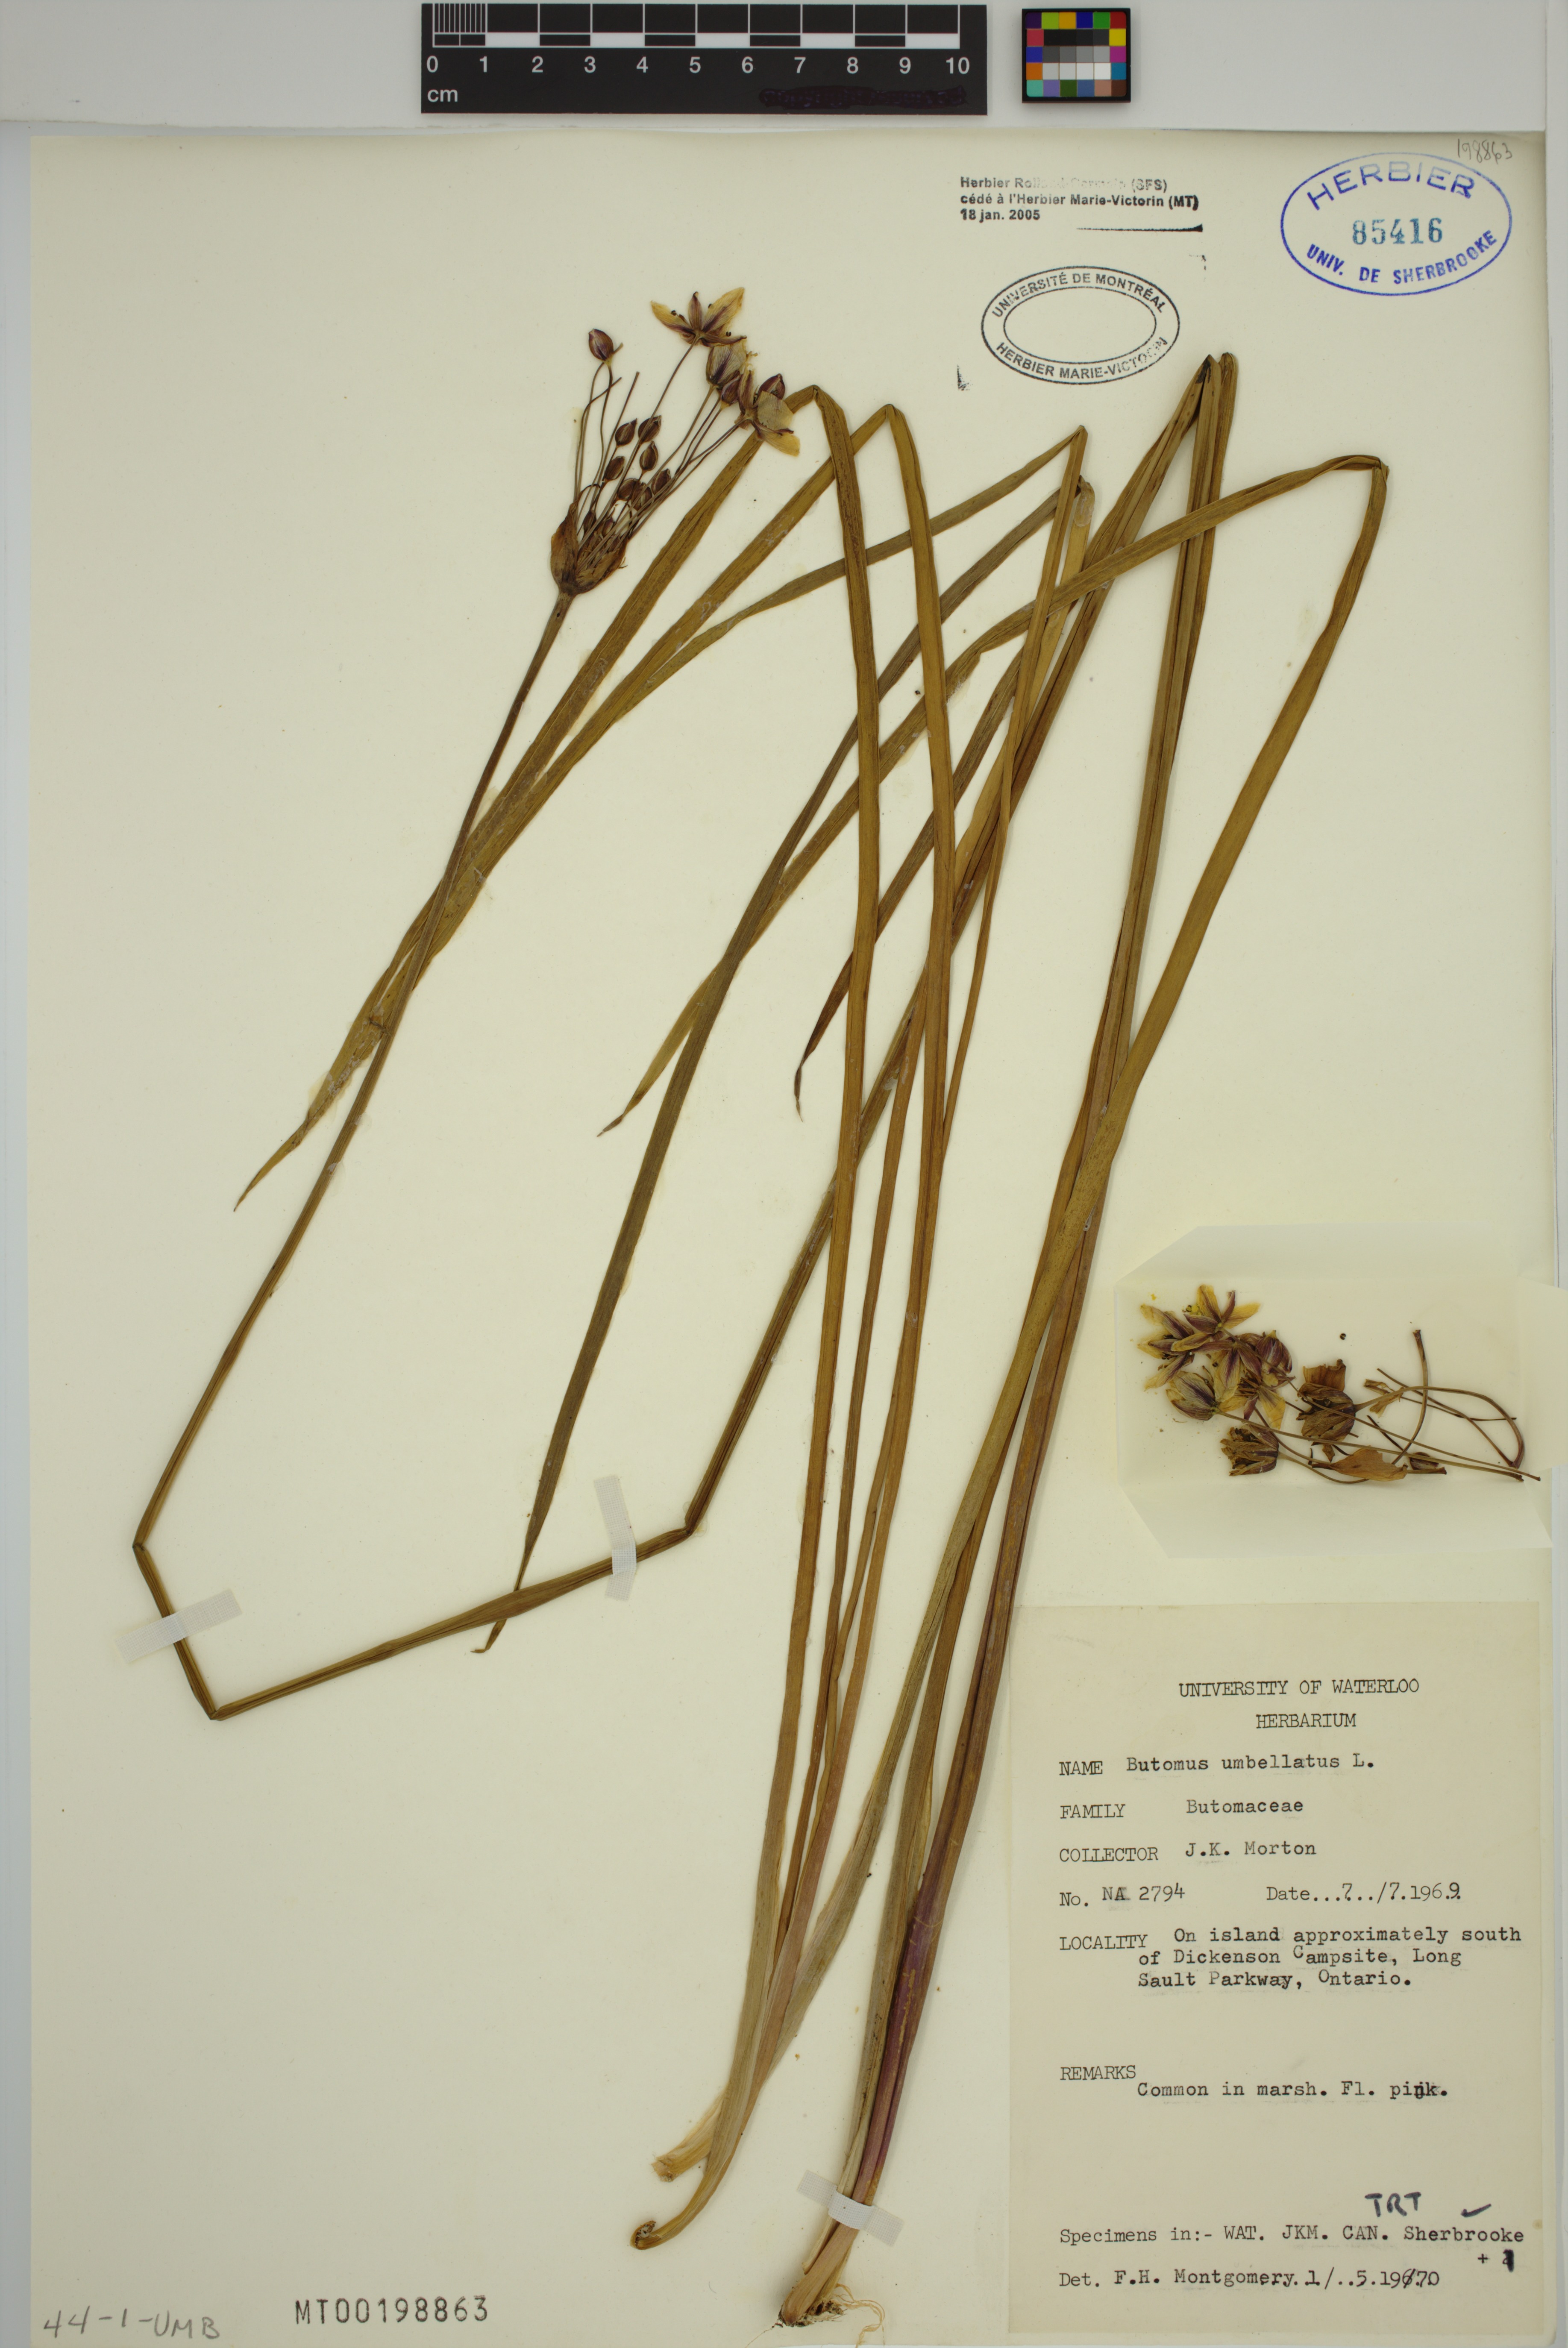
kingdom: Plantae
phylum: Tracheophyta
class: Liliopsida
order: Alismatales
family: Butomaceae
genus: Butomus
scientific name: Butomus umbellatus
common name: Flowering-rush
